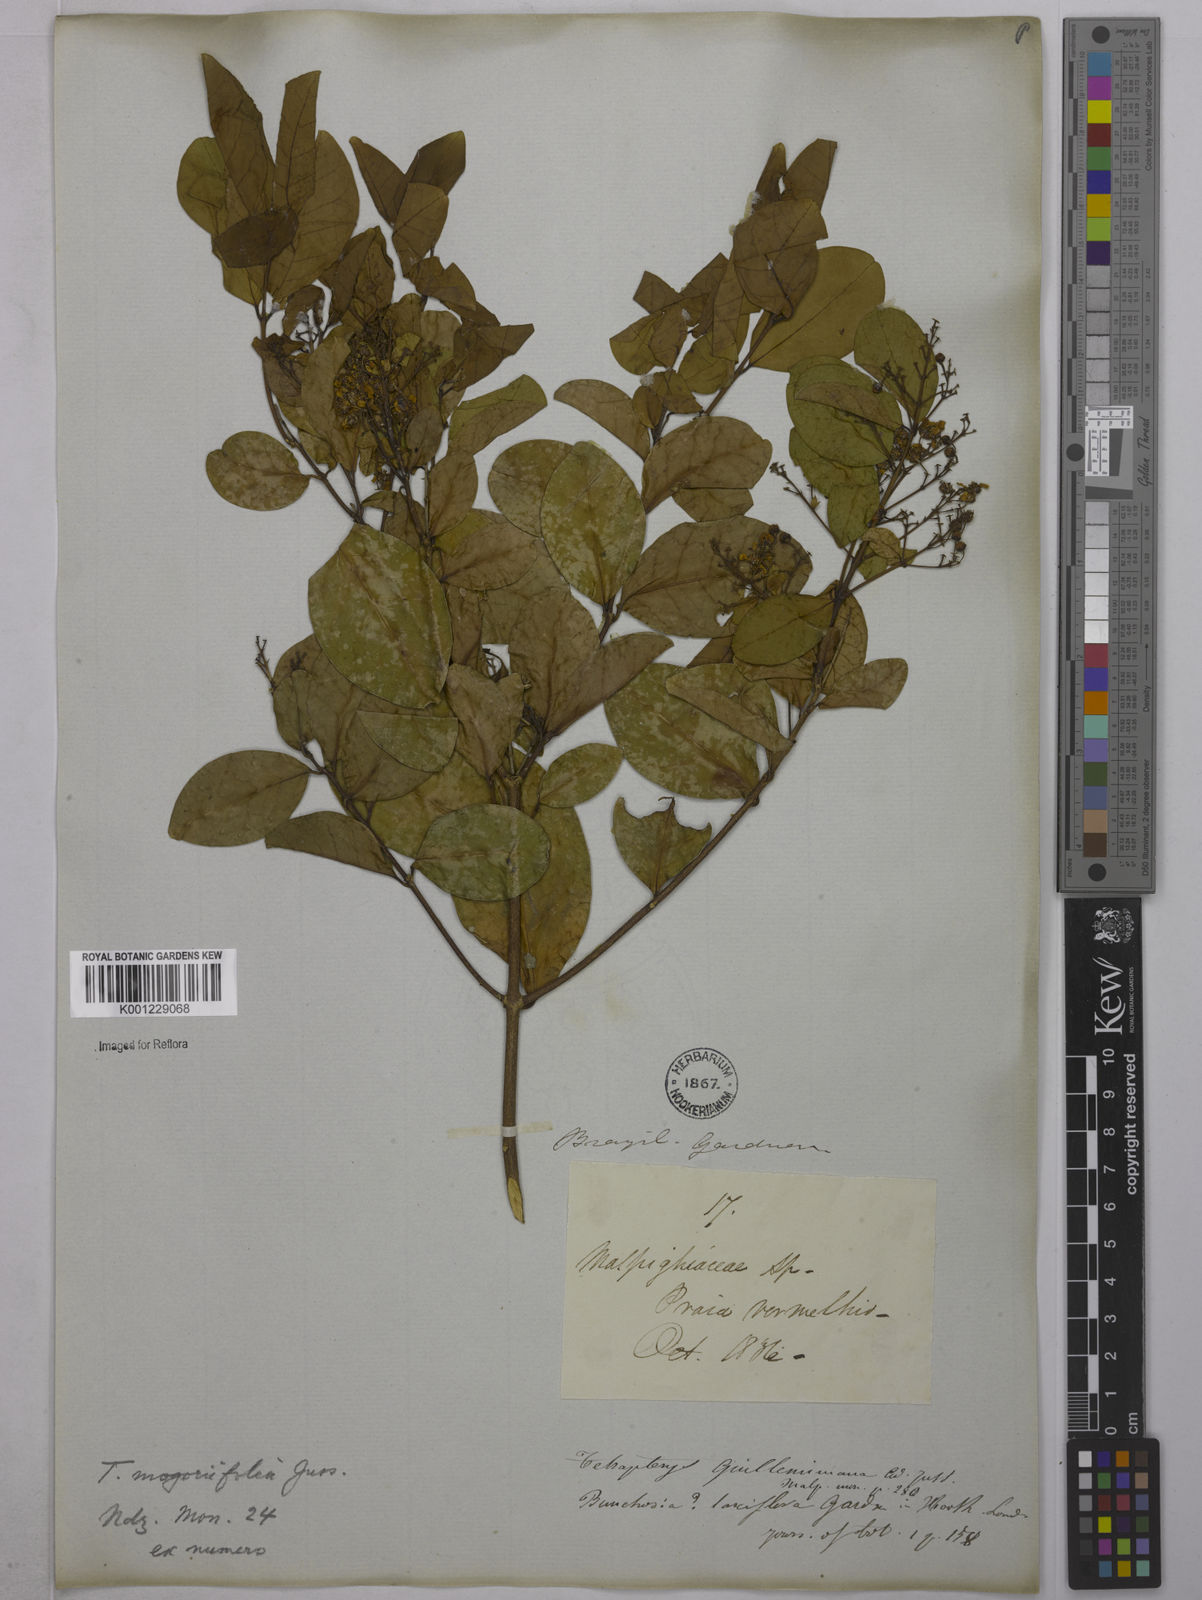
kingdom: Plantae
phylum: Tracheophyta
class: Magnoliopsida
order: Malpighiales
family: Malpighiaceae
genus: Niedenzuella
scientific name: Niedenzuella mogoriifolia
